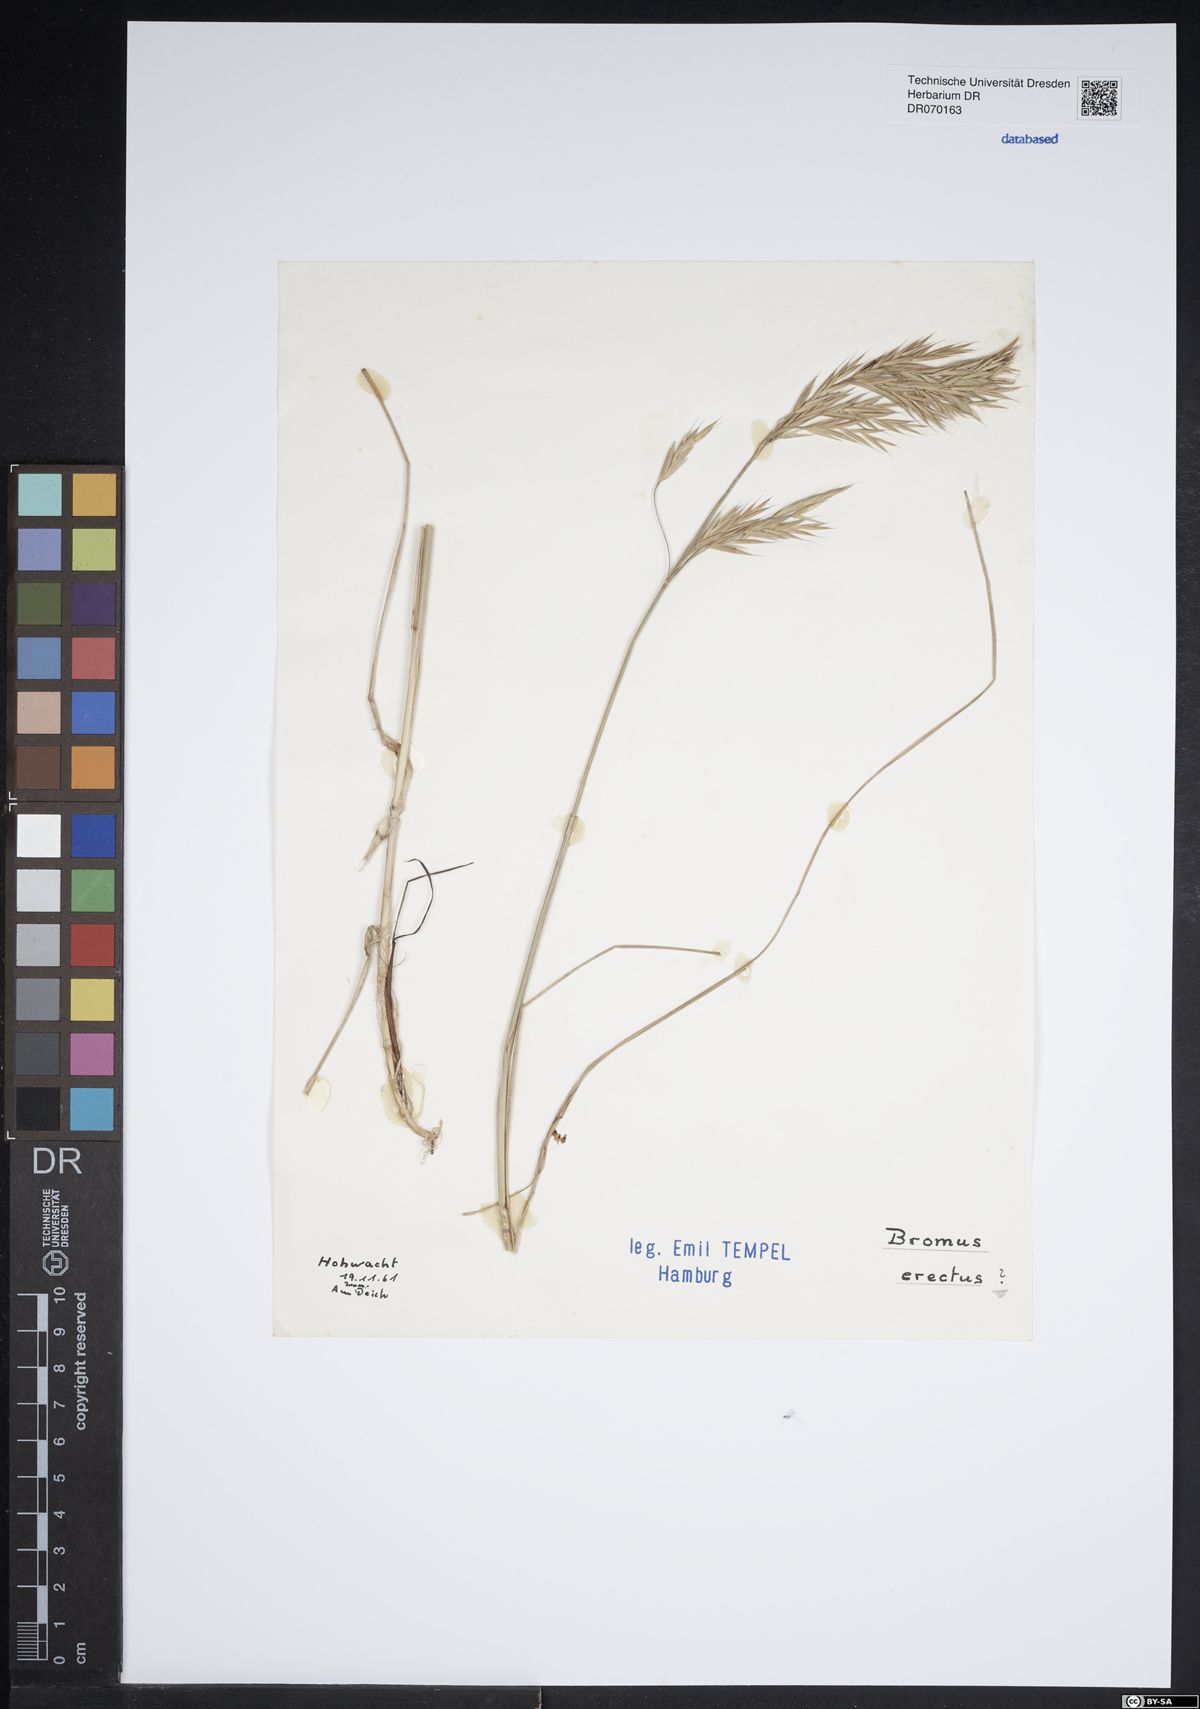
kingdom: Plantae
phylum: Tracheophyta
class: Liliopsida
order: Poales
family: Poaceae
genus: Bromus
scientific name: Bromus erectus
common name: Erect brome
